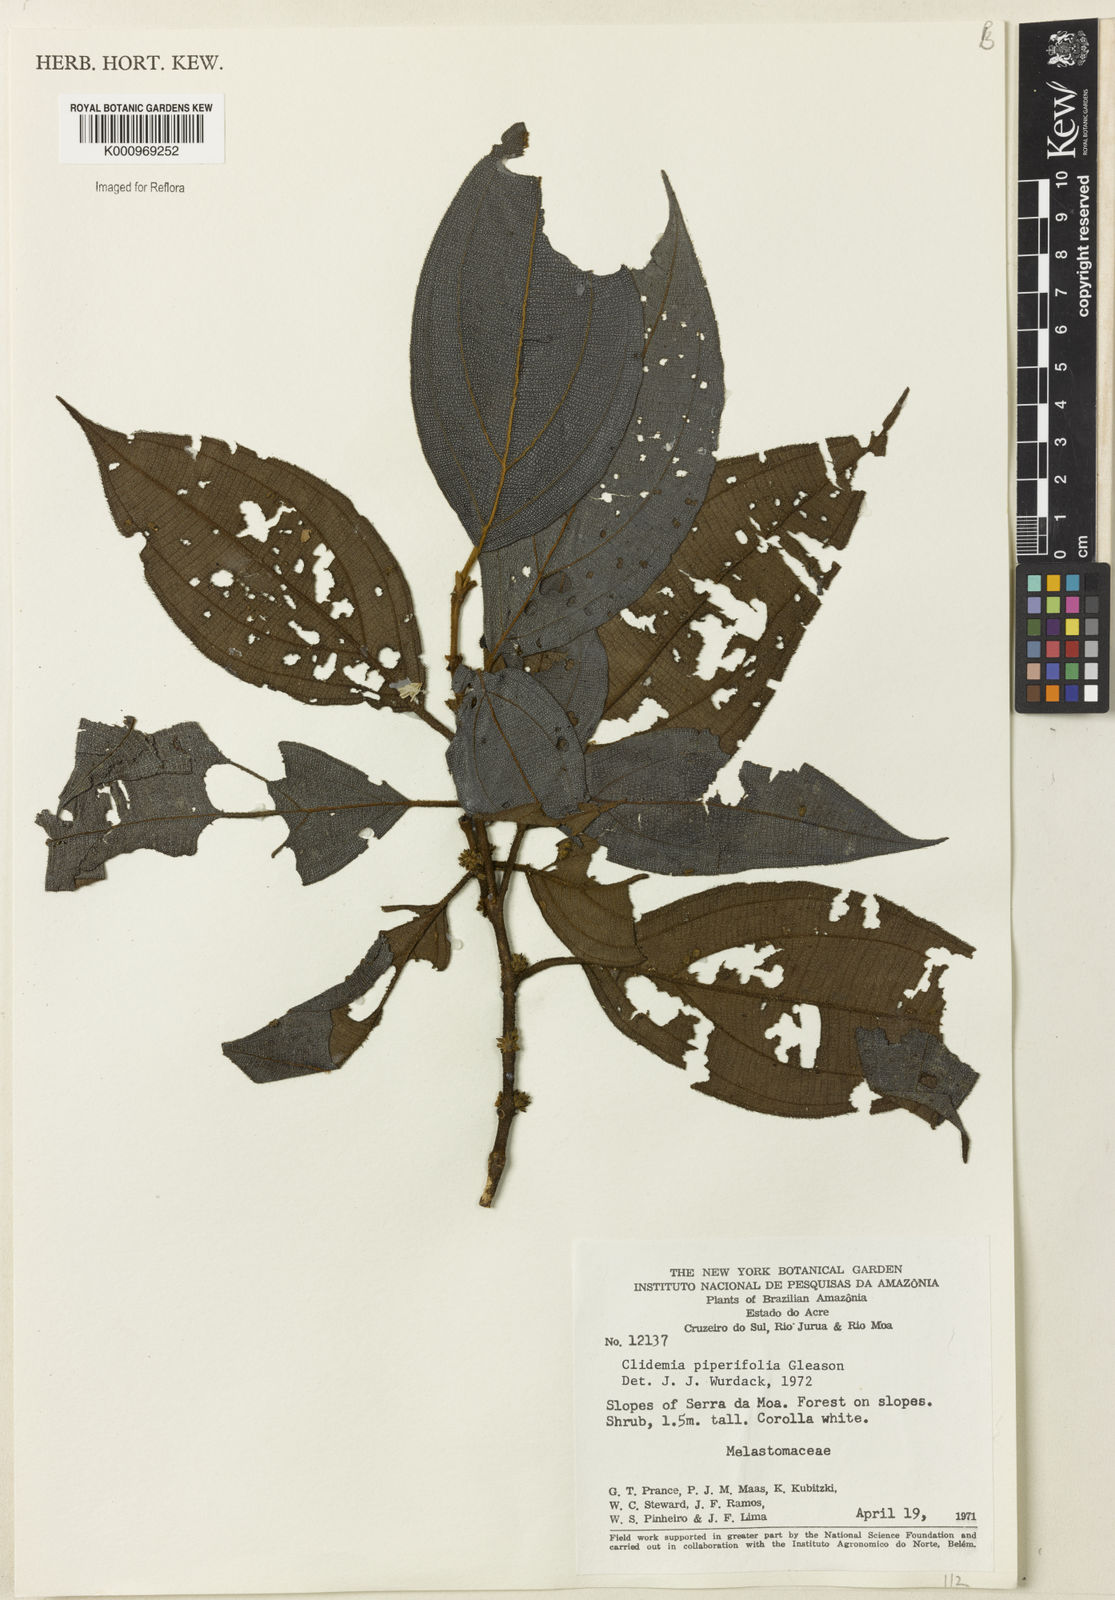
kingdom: Plantae
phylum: Tracheophyta
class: Magnoliopsida
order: Myrtales
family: Melastomataceae
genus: Miconia
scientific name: Miconia piperilamina
